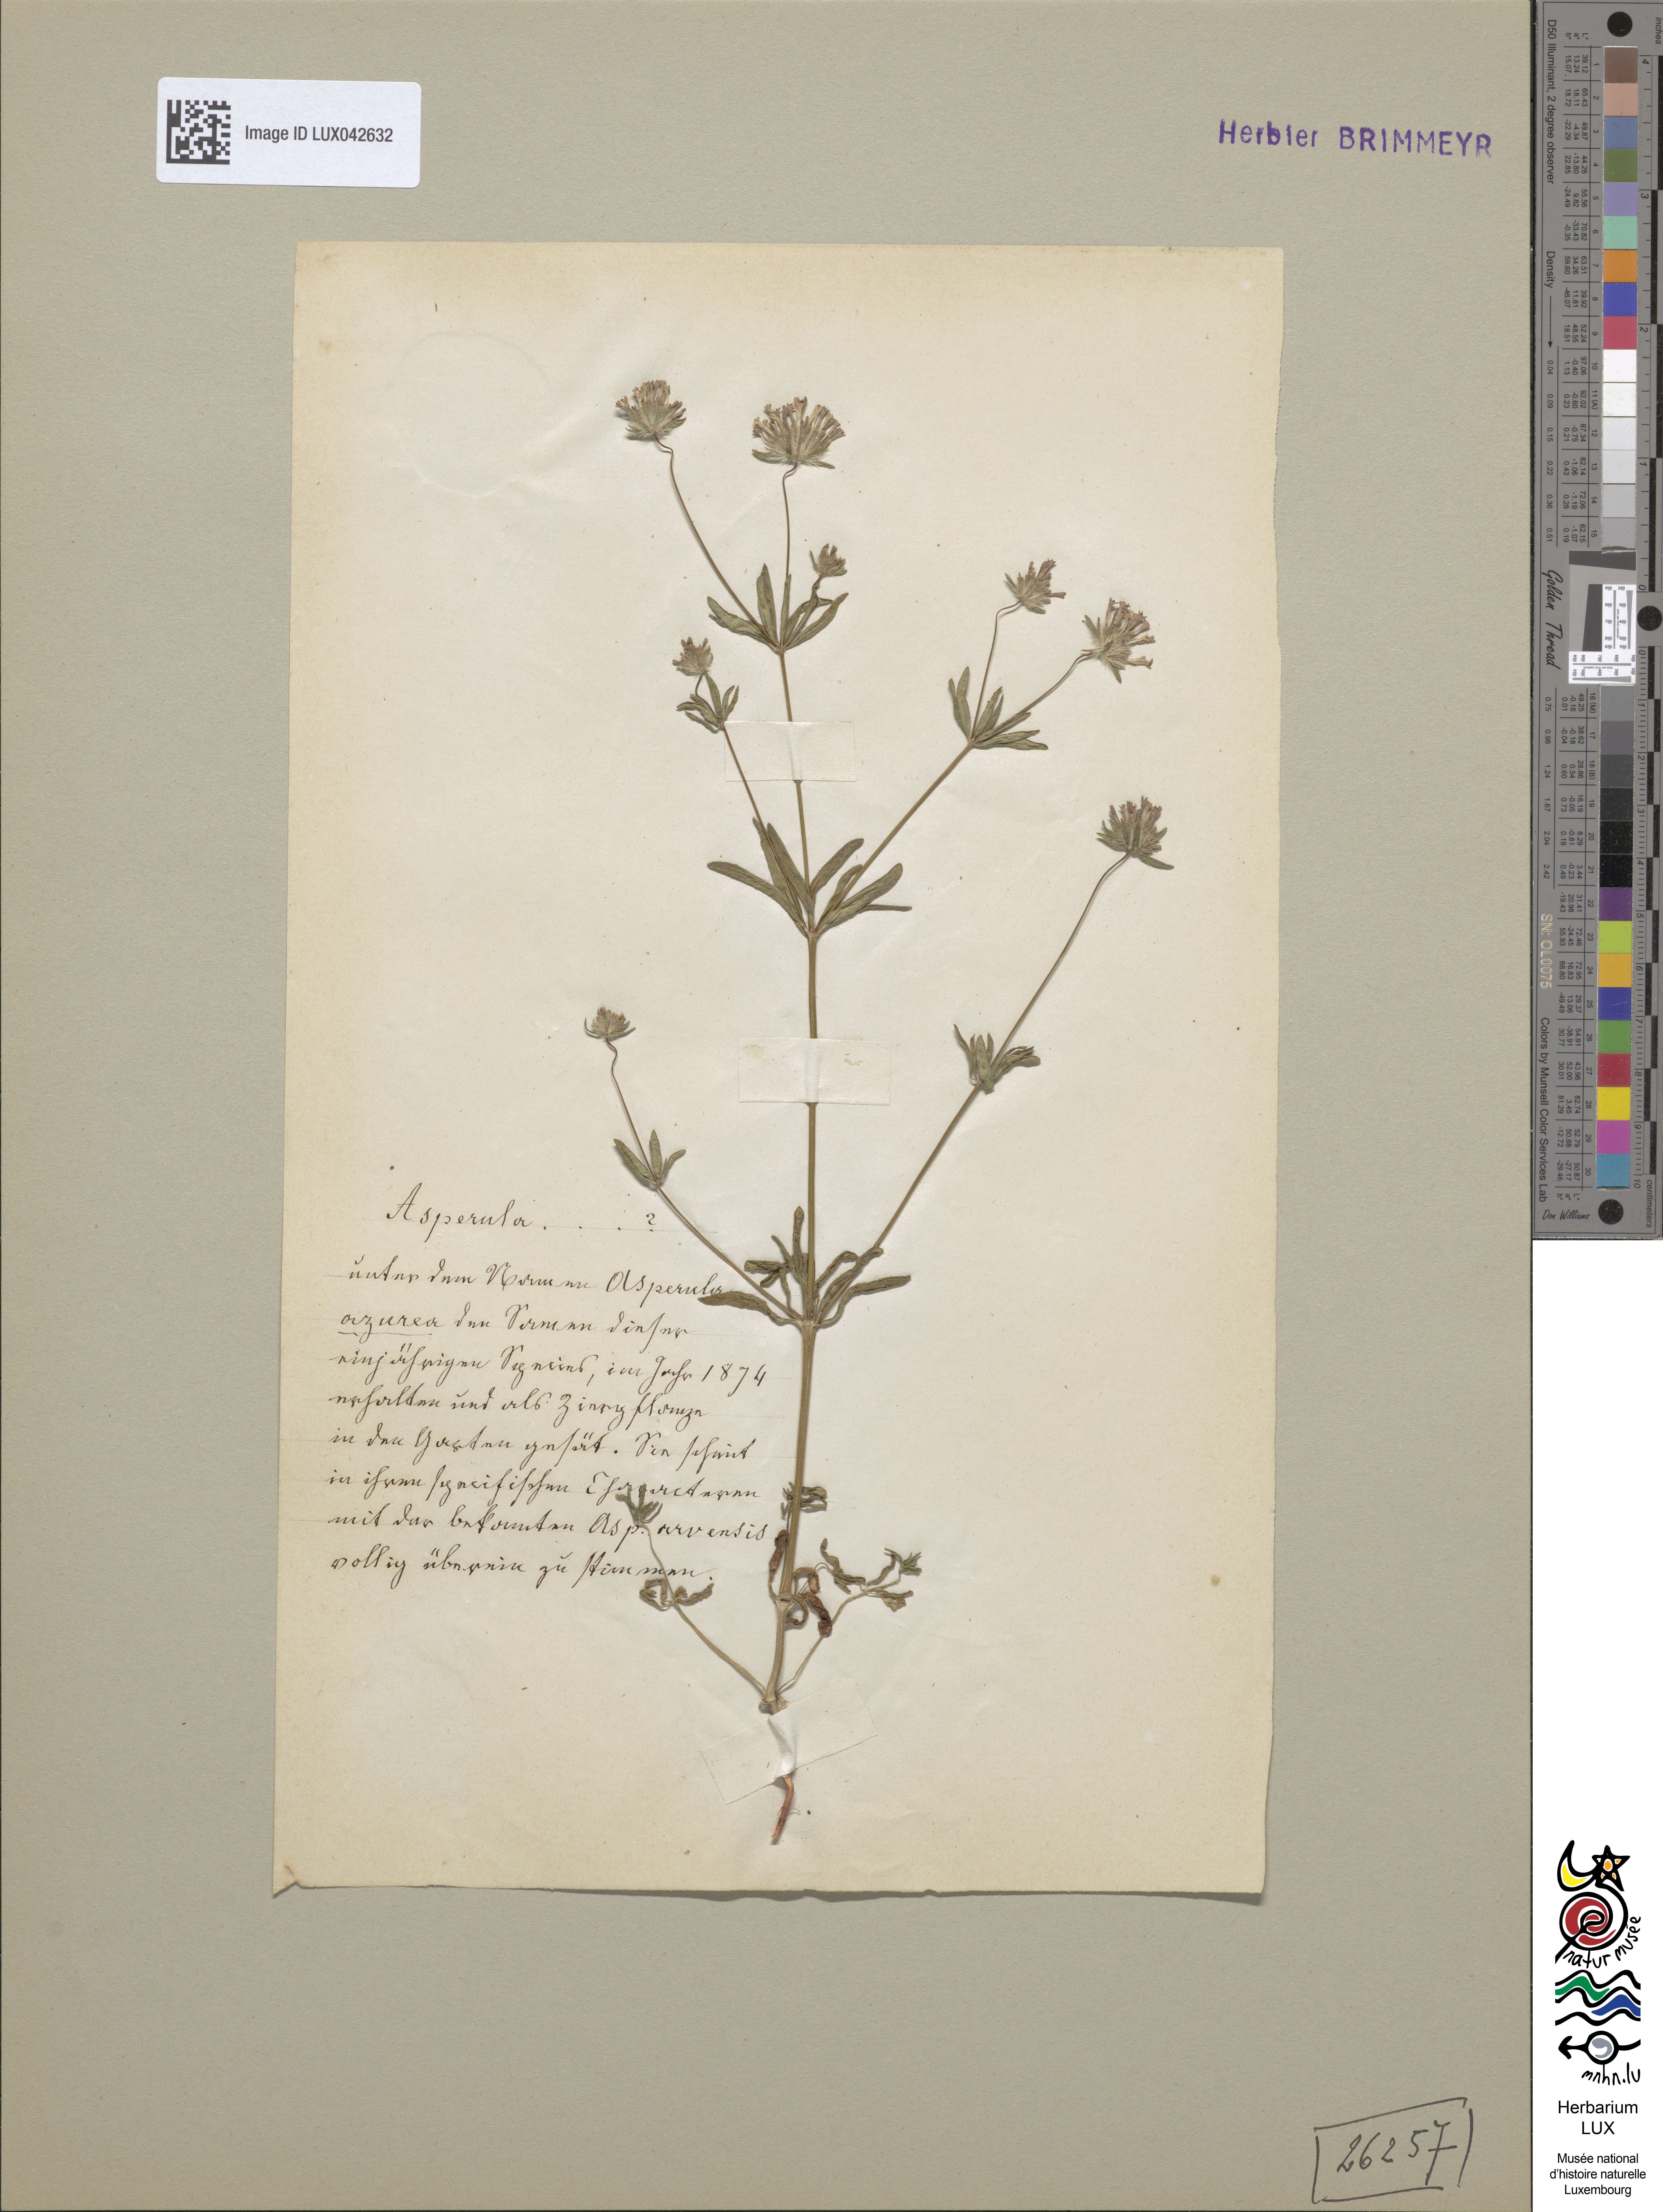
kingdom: Plantae
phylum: Tracheophyta
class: Magnoliopsida
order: Gentianales
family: Rubiaceae
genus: Asperula
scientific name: Asperula orientalis
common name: Oriental asperula
